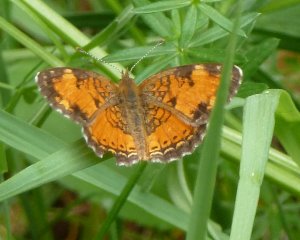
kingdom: Animalia
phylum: Arthropoda
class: Insecta
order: Lepidoptera
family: Nymphalidae
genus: Phyciodes
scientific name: Phyciodes tharos
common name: Northern Crescent
